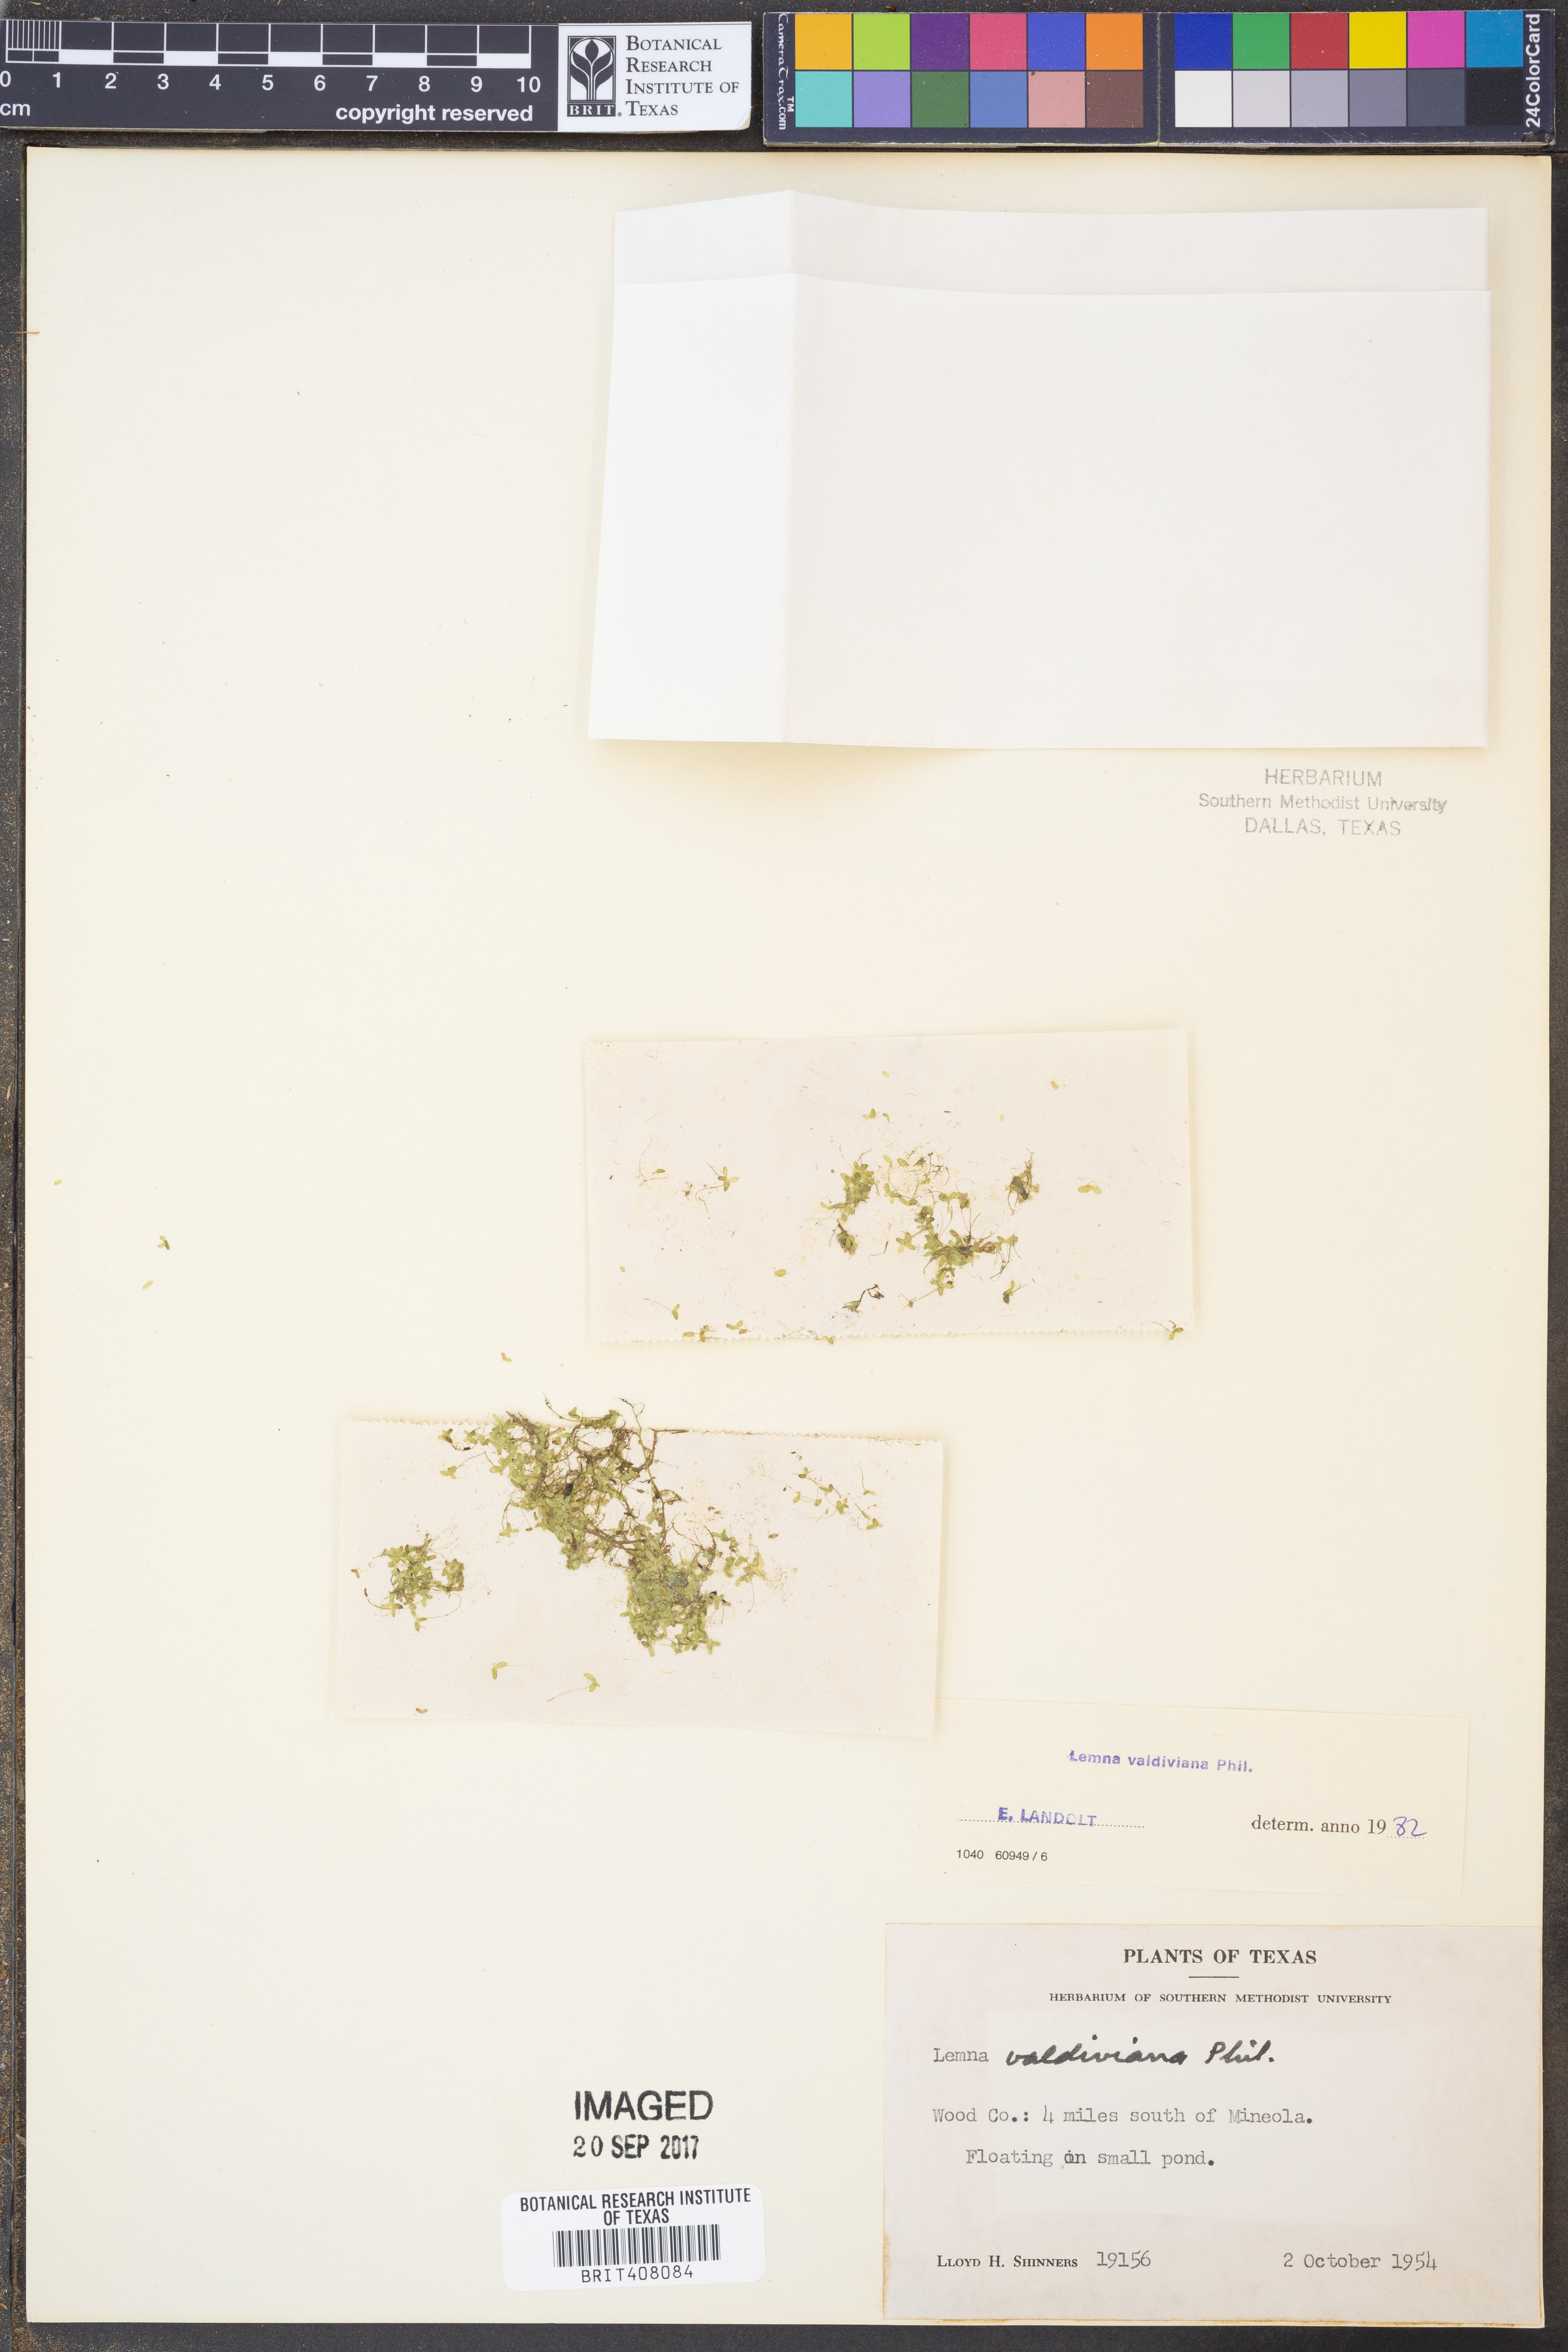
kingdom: Plantae
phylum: Tracheophyta
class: Liliopsida
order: Alismatales
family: Araceae
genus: Lemna
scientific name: Lemna valdiviana
